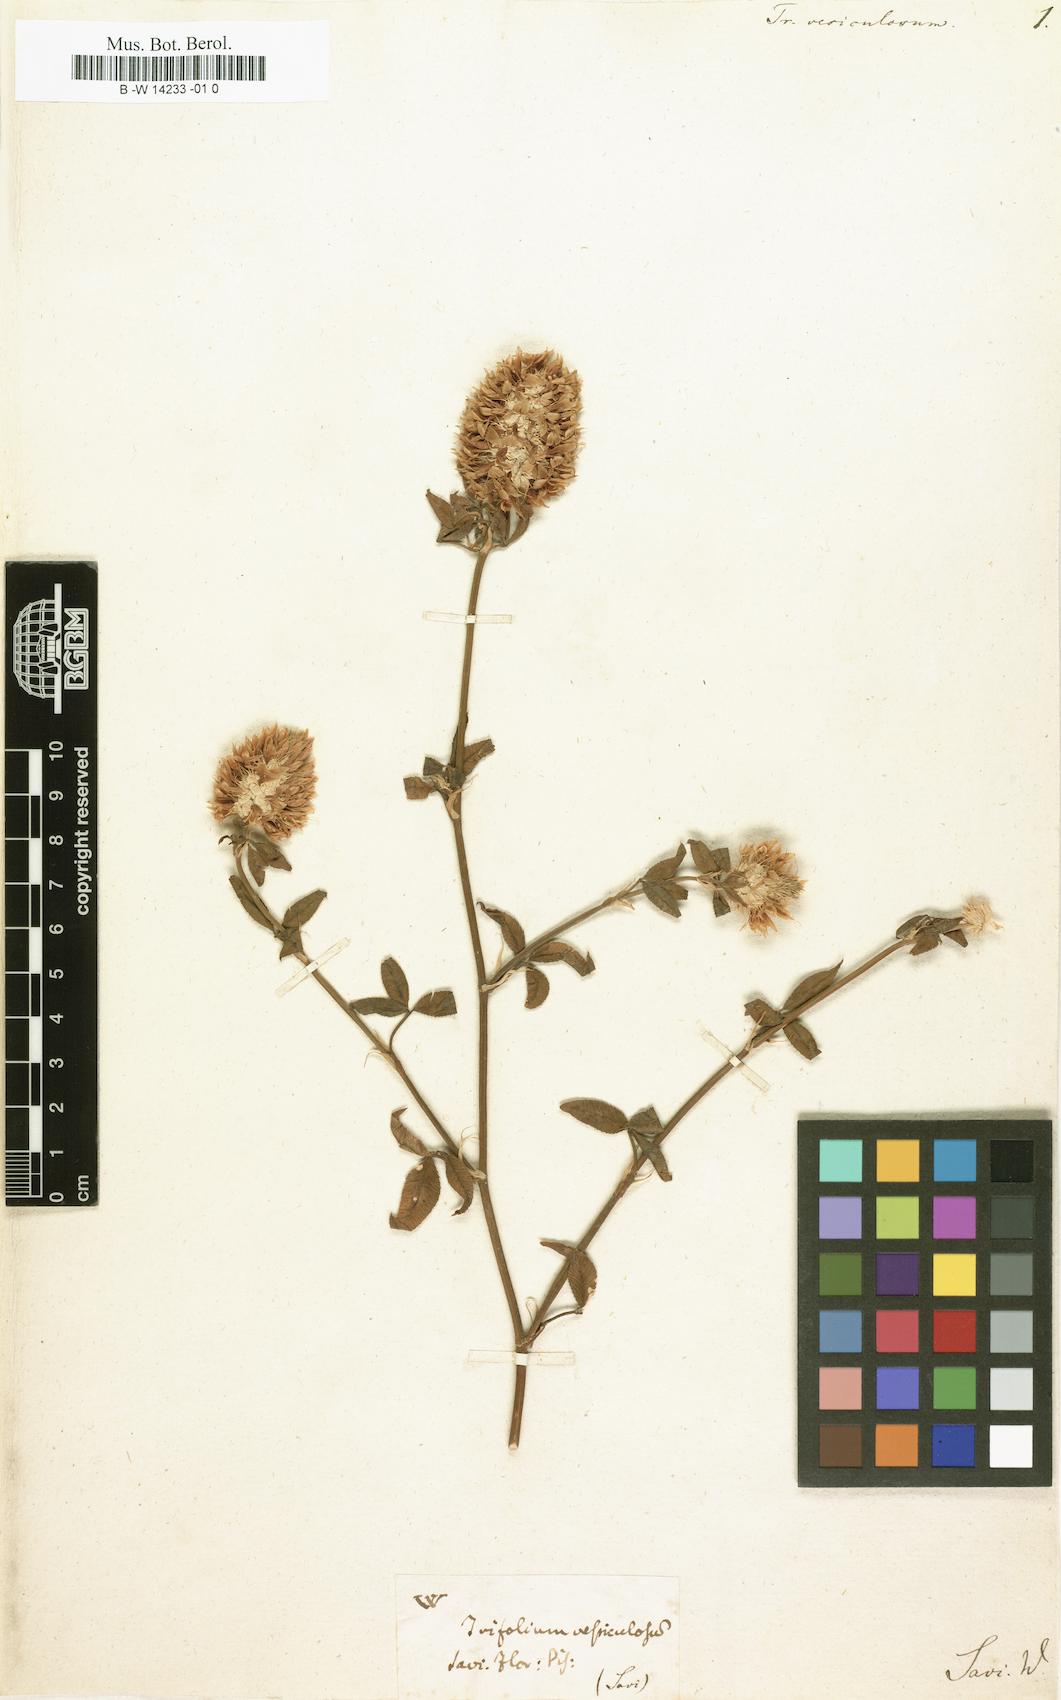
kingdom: Plantae
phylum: Tracheophyta
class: Magnoliopsida
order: Fabales
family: Fabaceae
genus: Trifolium
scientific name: Trifolium vesiculosum
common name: Arrowleaf clover
